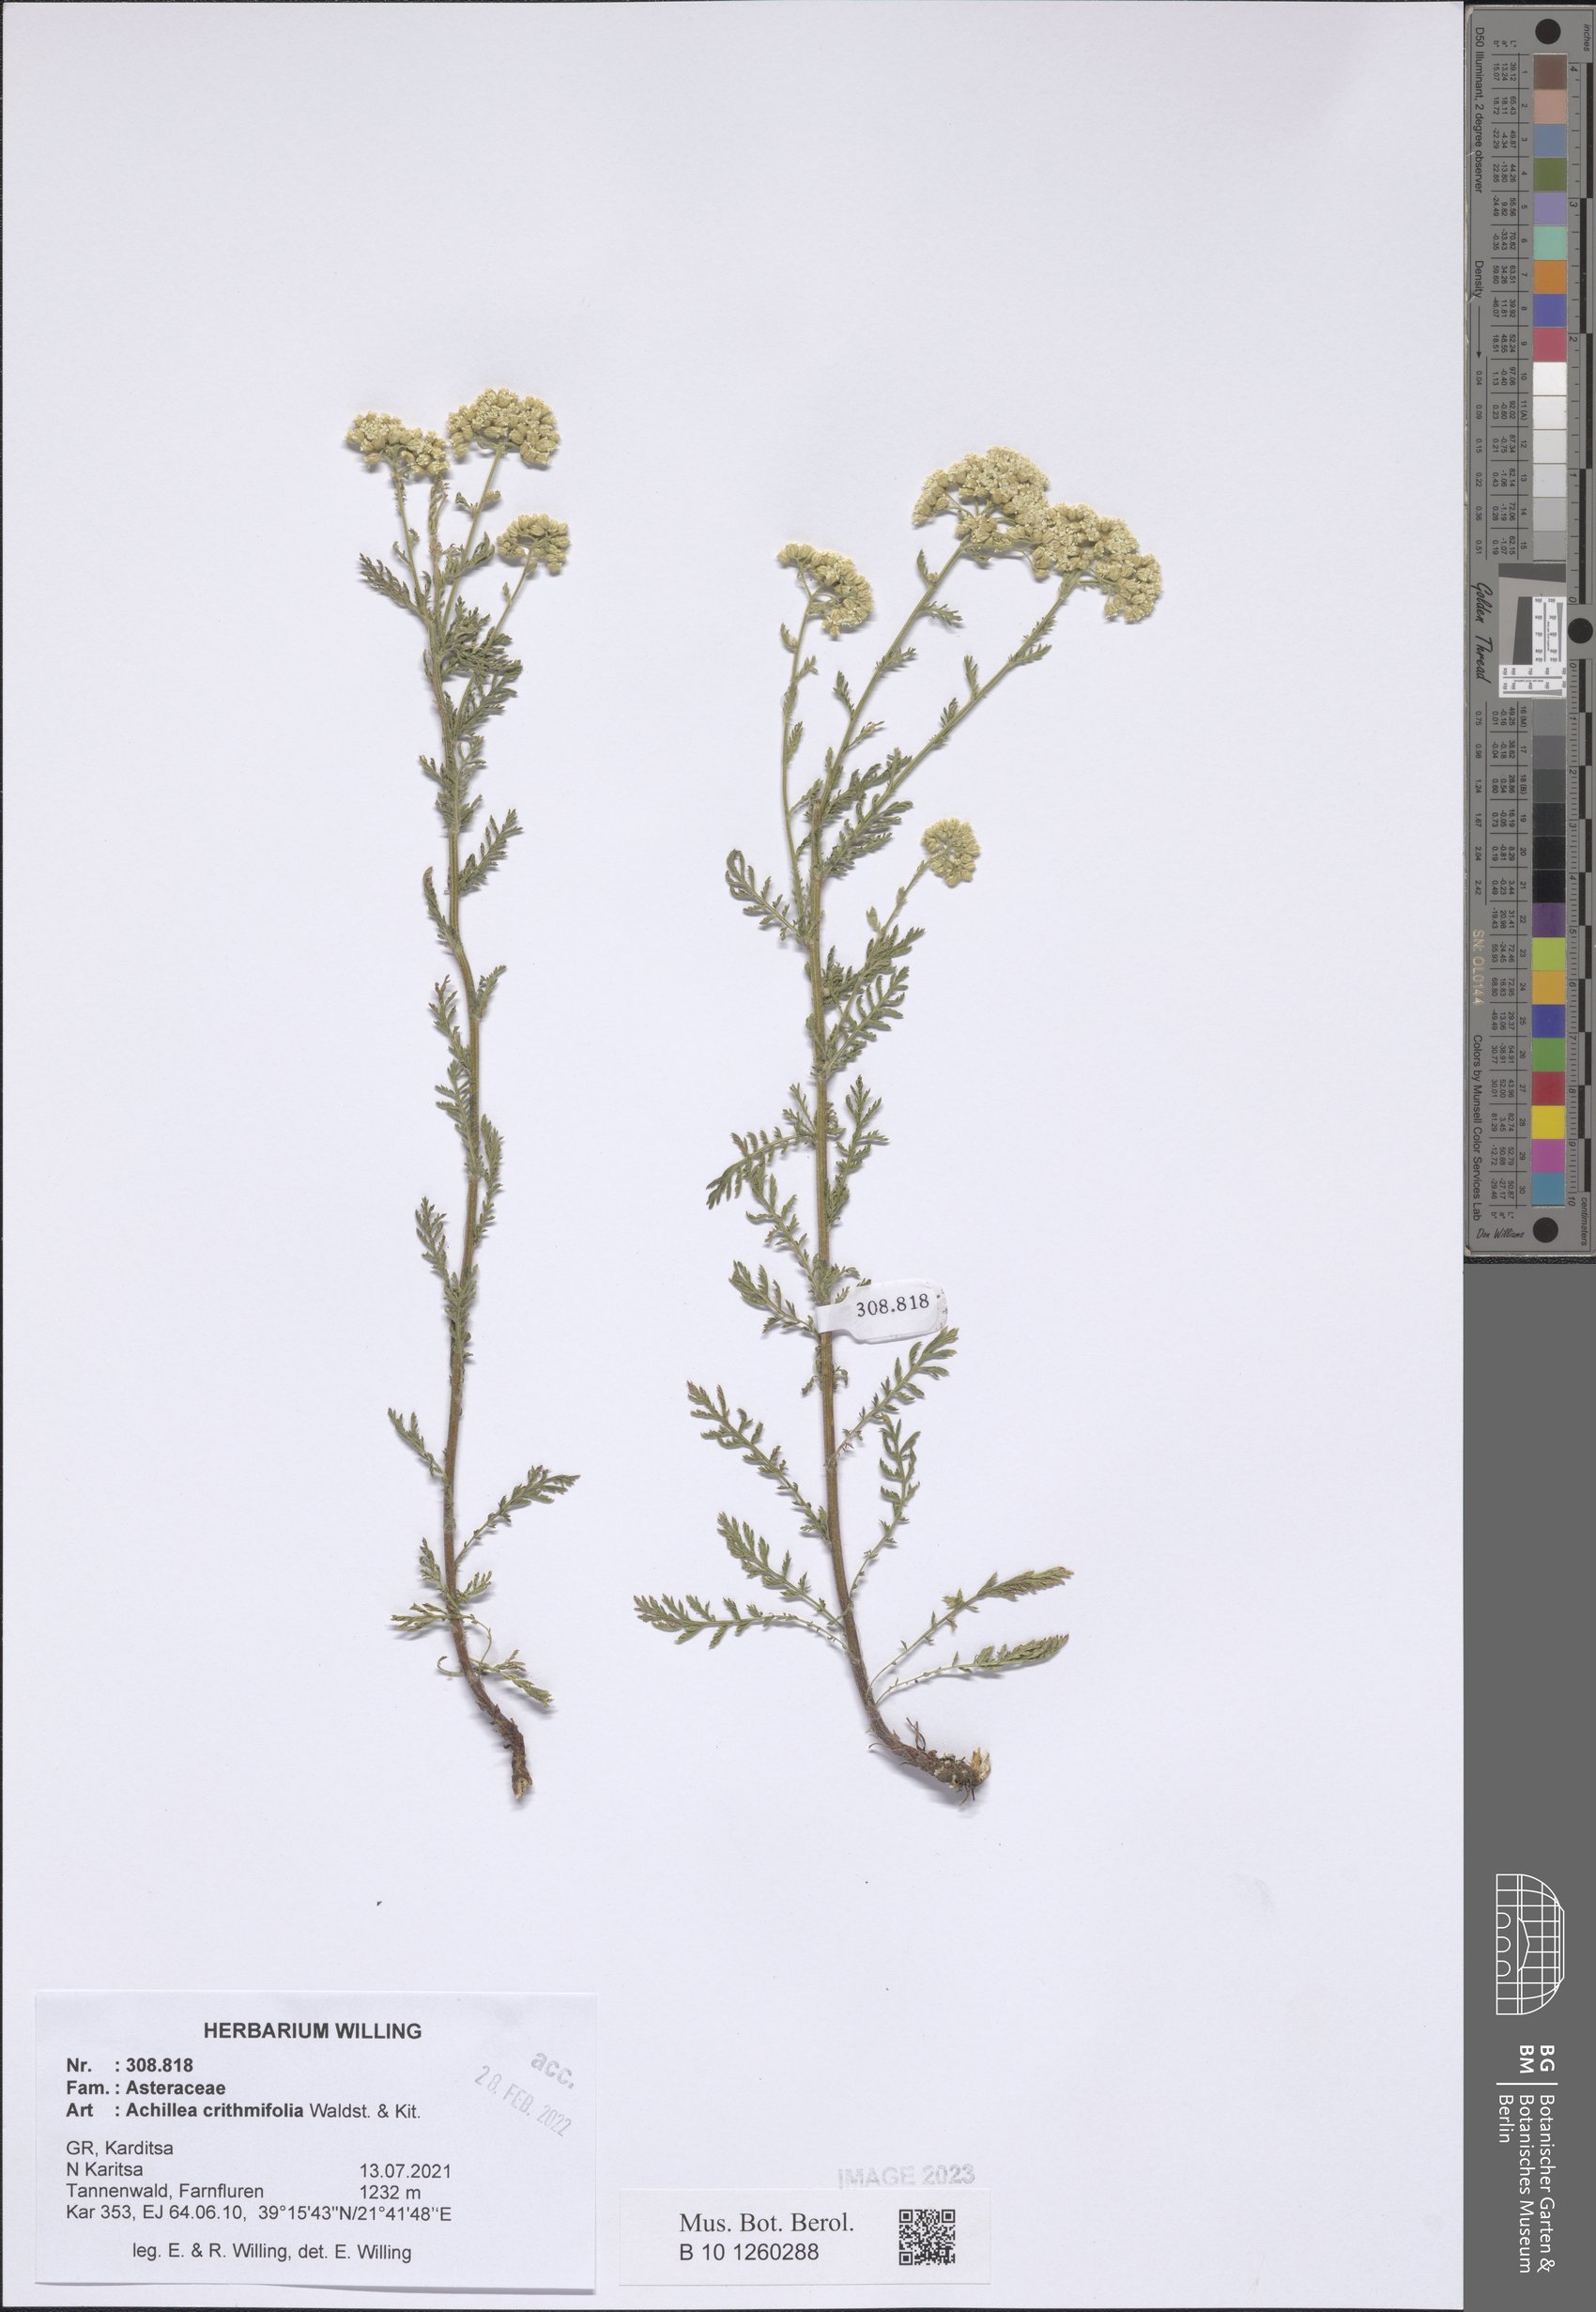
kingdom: Plantae
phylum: Tracheophyta
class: Magnoliopsida
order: Asterales
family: Asteraceae
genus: Achillea
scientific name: Achillea crithmifolia
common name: Yarrow
